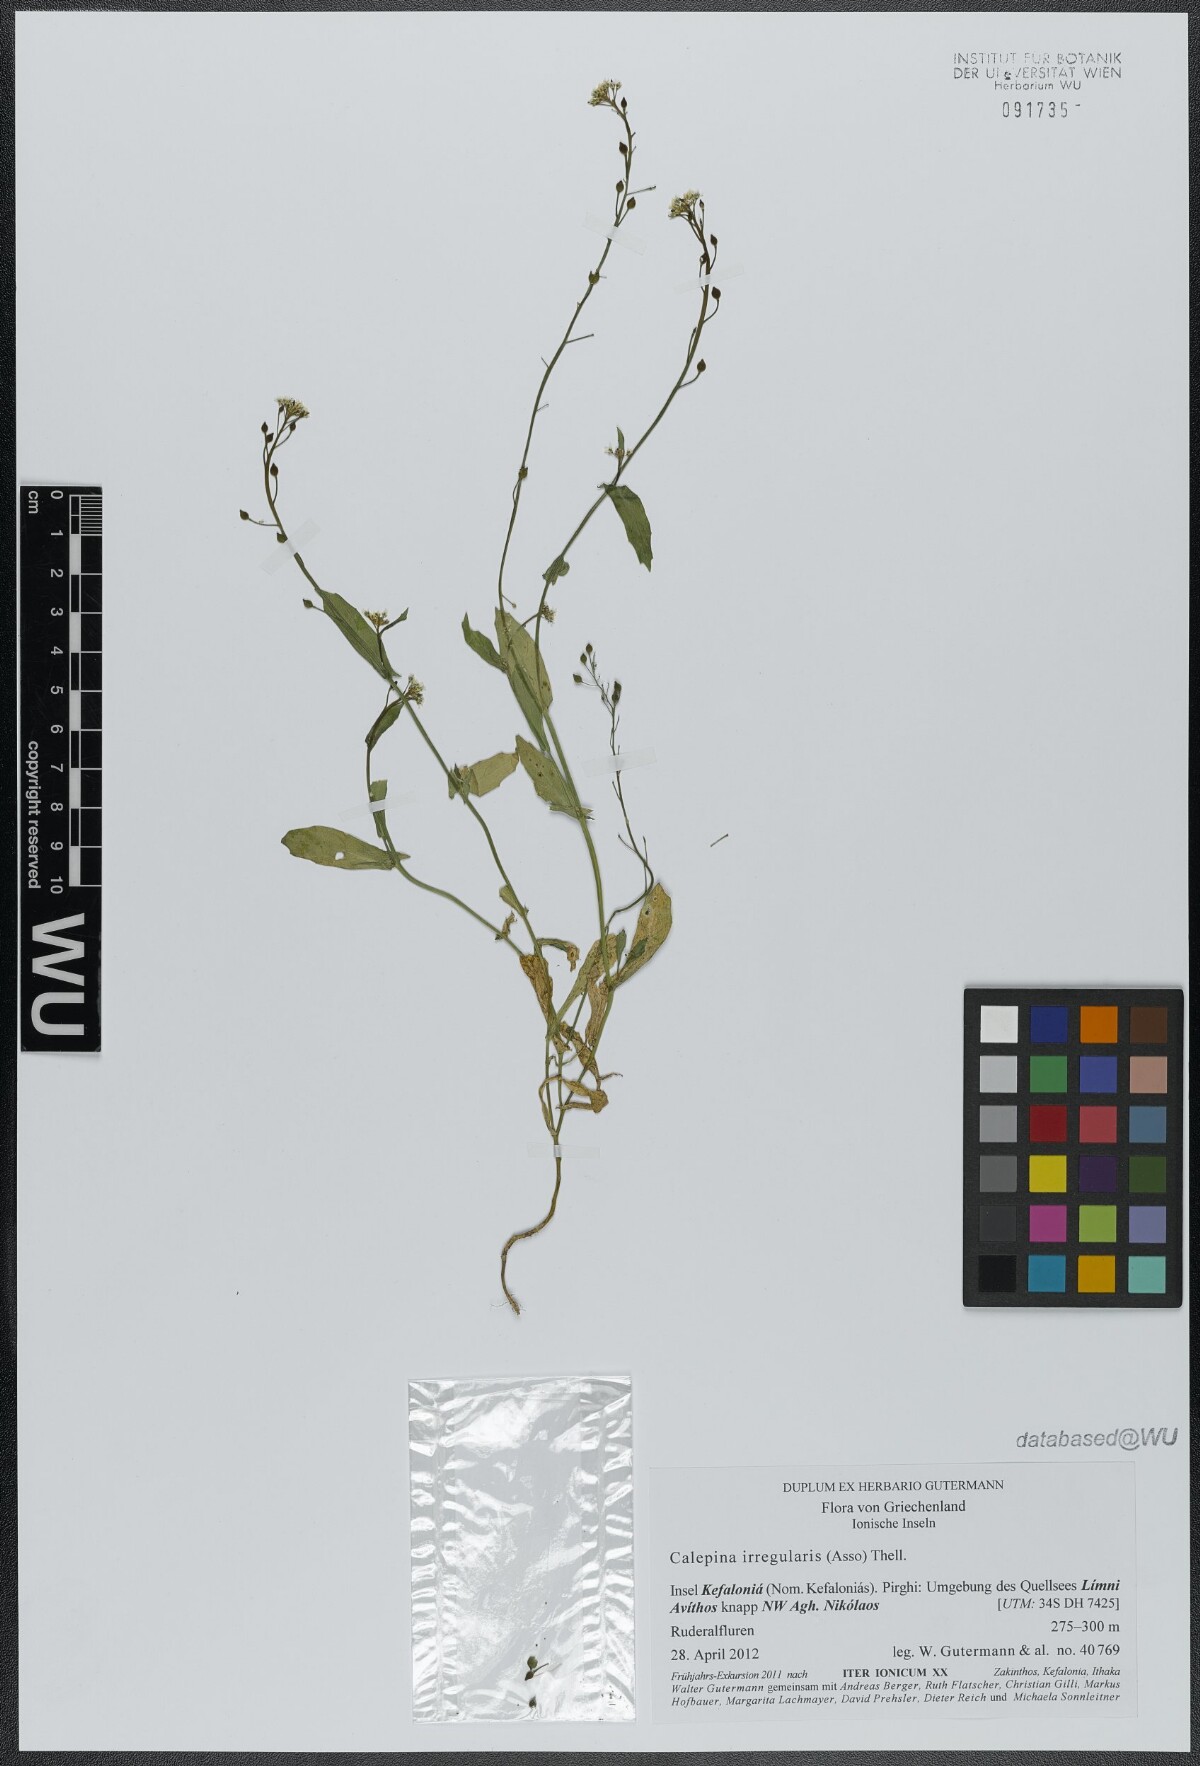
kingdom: Plantae
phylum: Tracheophyta
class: Magnoliopsida
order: Brassicales
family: Brassicaceae
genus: Calepina
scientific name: Calepina irregularis
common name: White ballmustard
